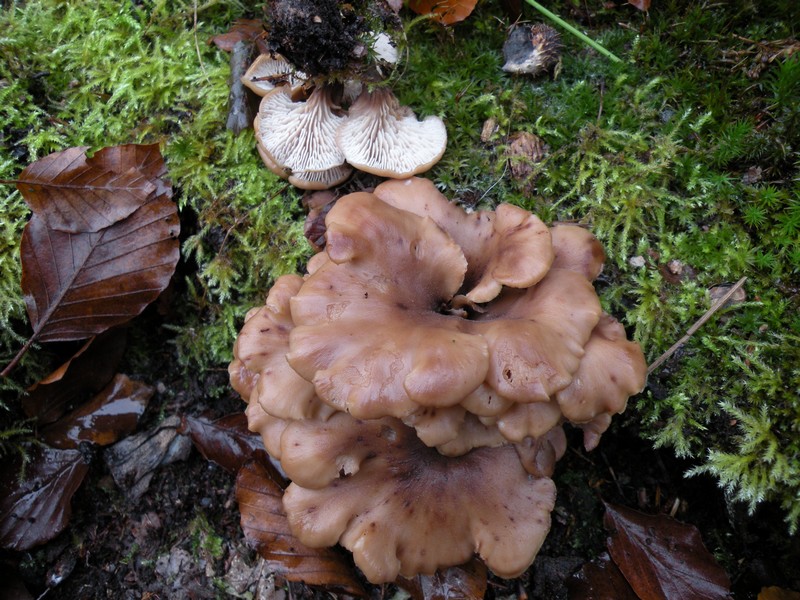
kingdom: Fungi
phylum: Basidiomycota
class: Agaricomycetes
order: Russulales
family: Auriscalpiaceae
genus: Lentinellus
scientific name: Lentinellus cochleatus
